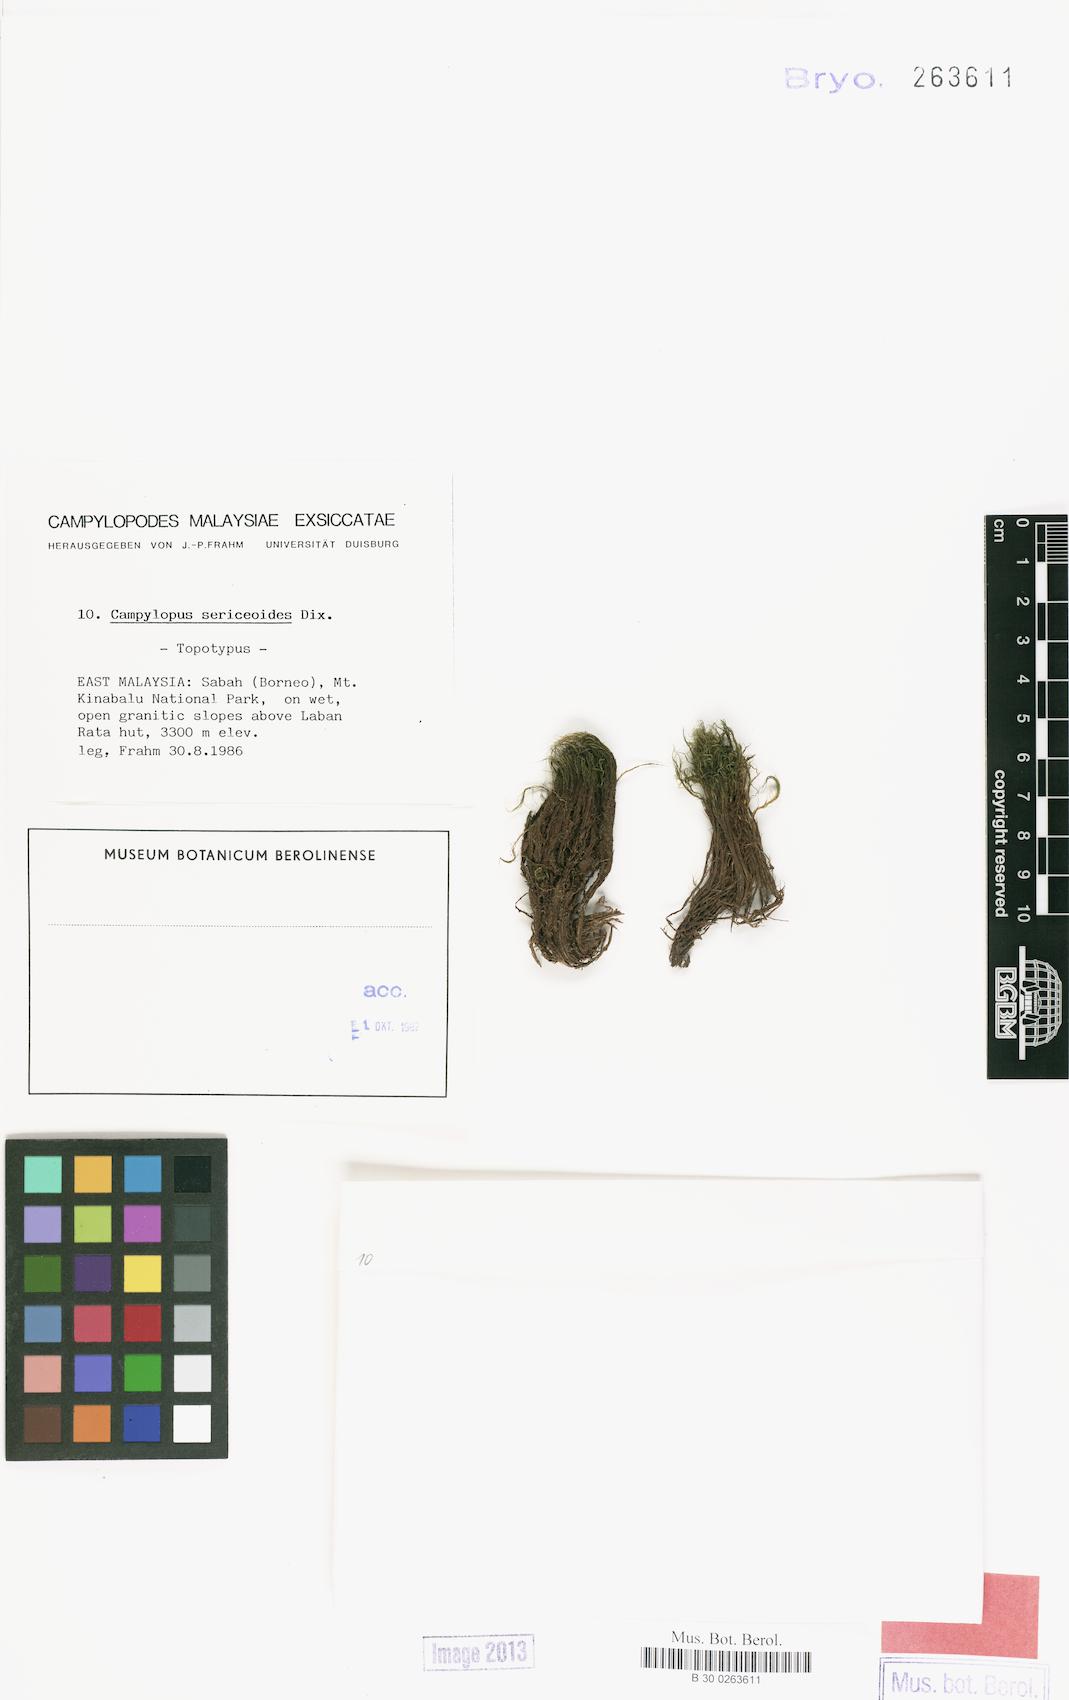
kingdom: Plantae
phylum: Bryophyta
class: Bryopsida
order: Dicranales
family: Leucobryaceae
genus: Campylopus
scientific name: Campylopus sericeoides
